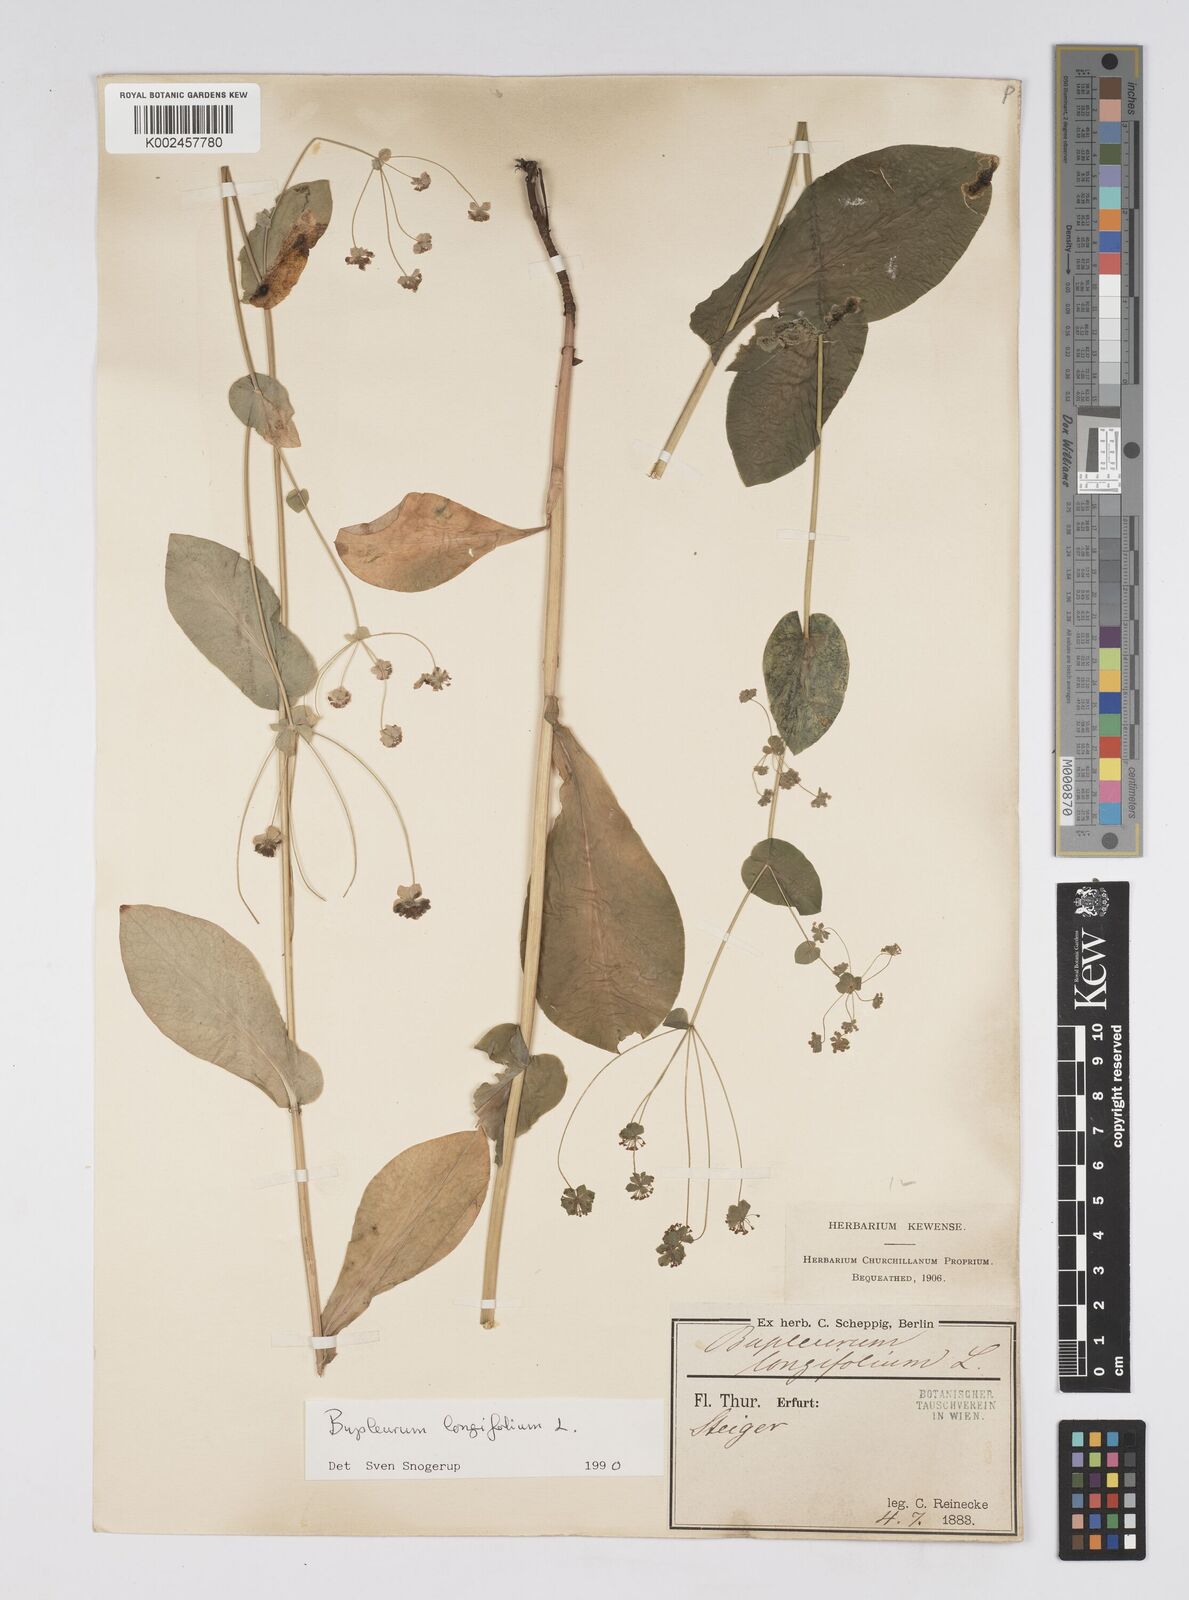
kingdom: Plantae
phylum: Tracheophyta
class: Magnoliopsida
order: Apiales
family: Apiaceae
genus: Bupleurum
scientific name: Bupleurum longifolium
